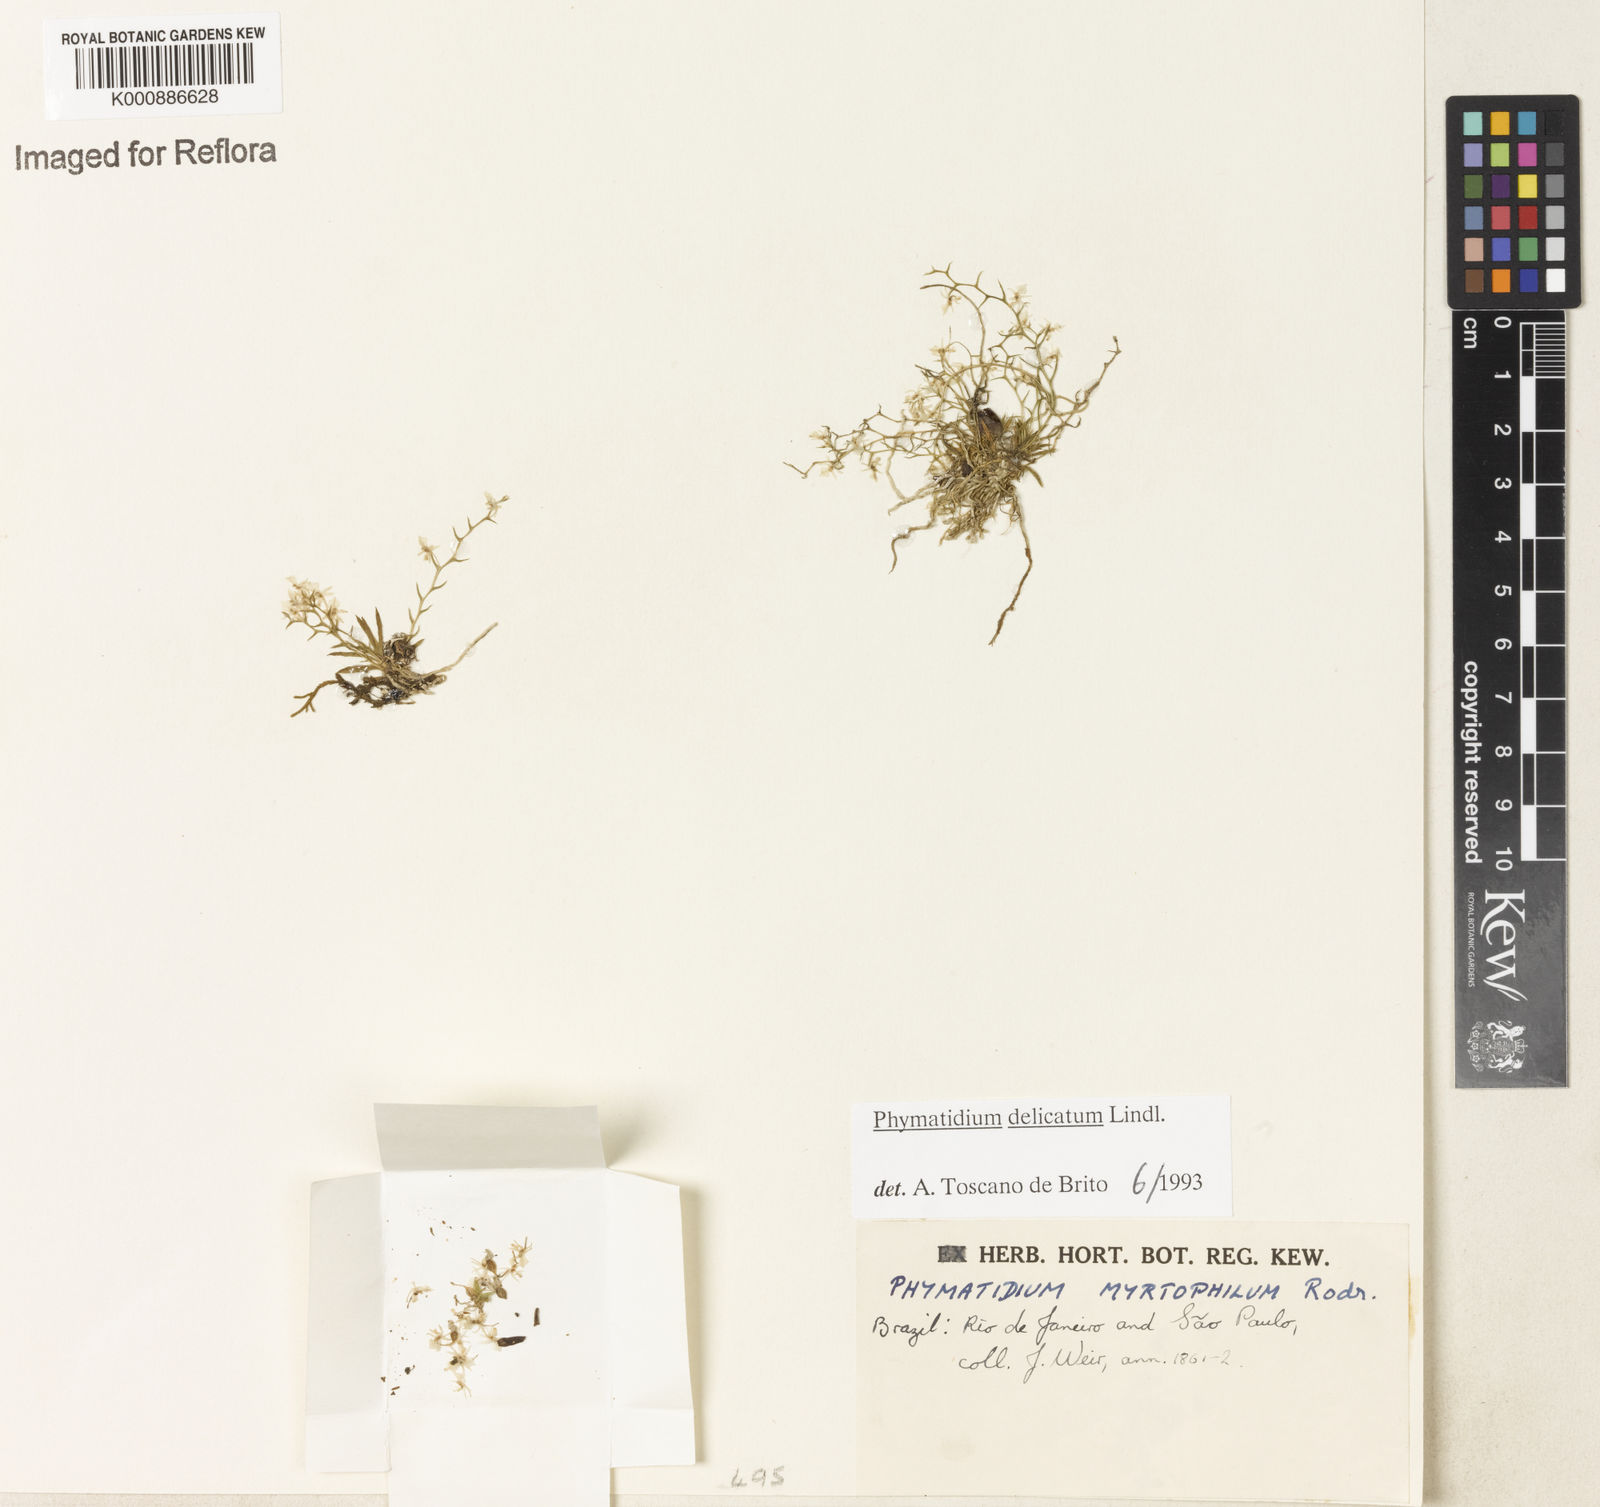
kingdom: Plantae
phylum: Tracheophyta
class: Liliopsida
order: Asparagales
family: Orchidaceae
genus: Phymatidium
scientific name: Phymatidium
